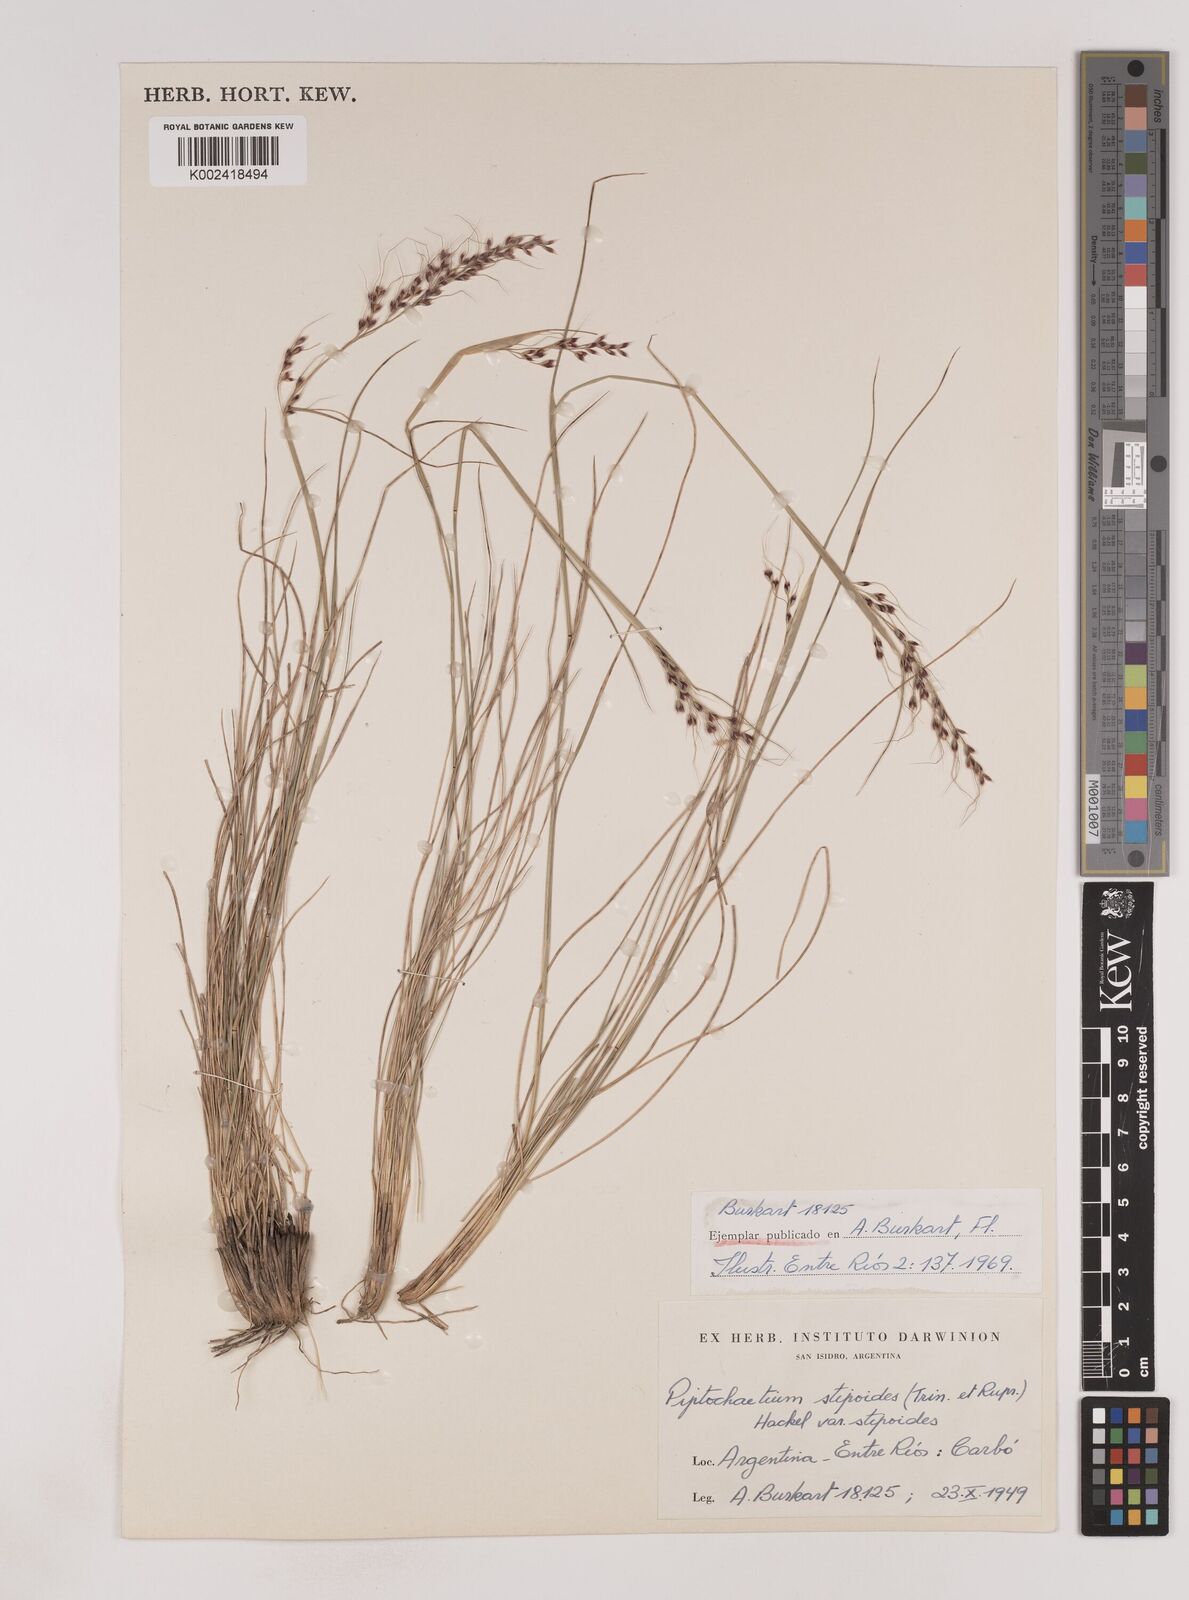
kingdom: Plantae
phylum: Tracheophyta
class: Liliopsida
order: Poales
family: Poaceae
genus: Piptochaetium
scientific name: Piptochaetium stipoides
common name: Purple speargrass
